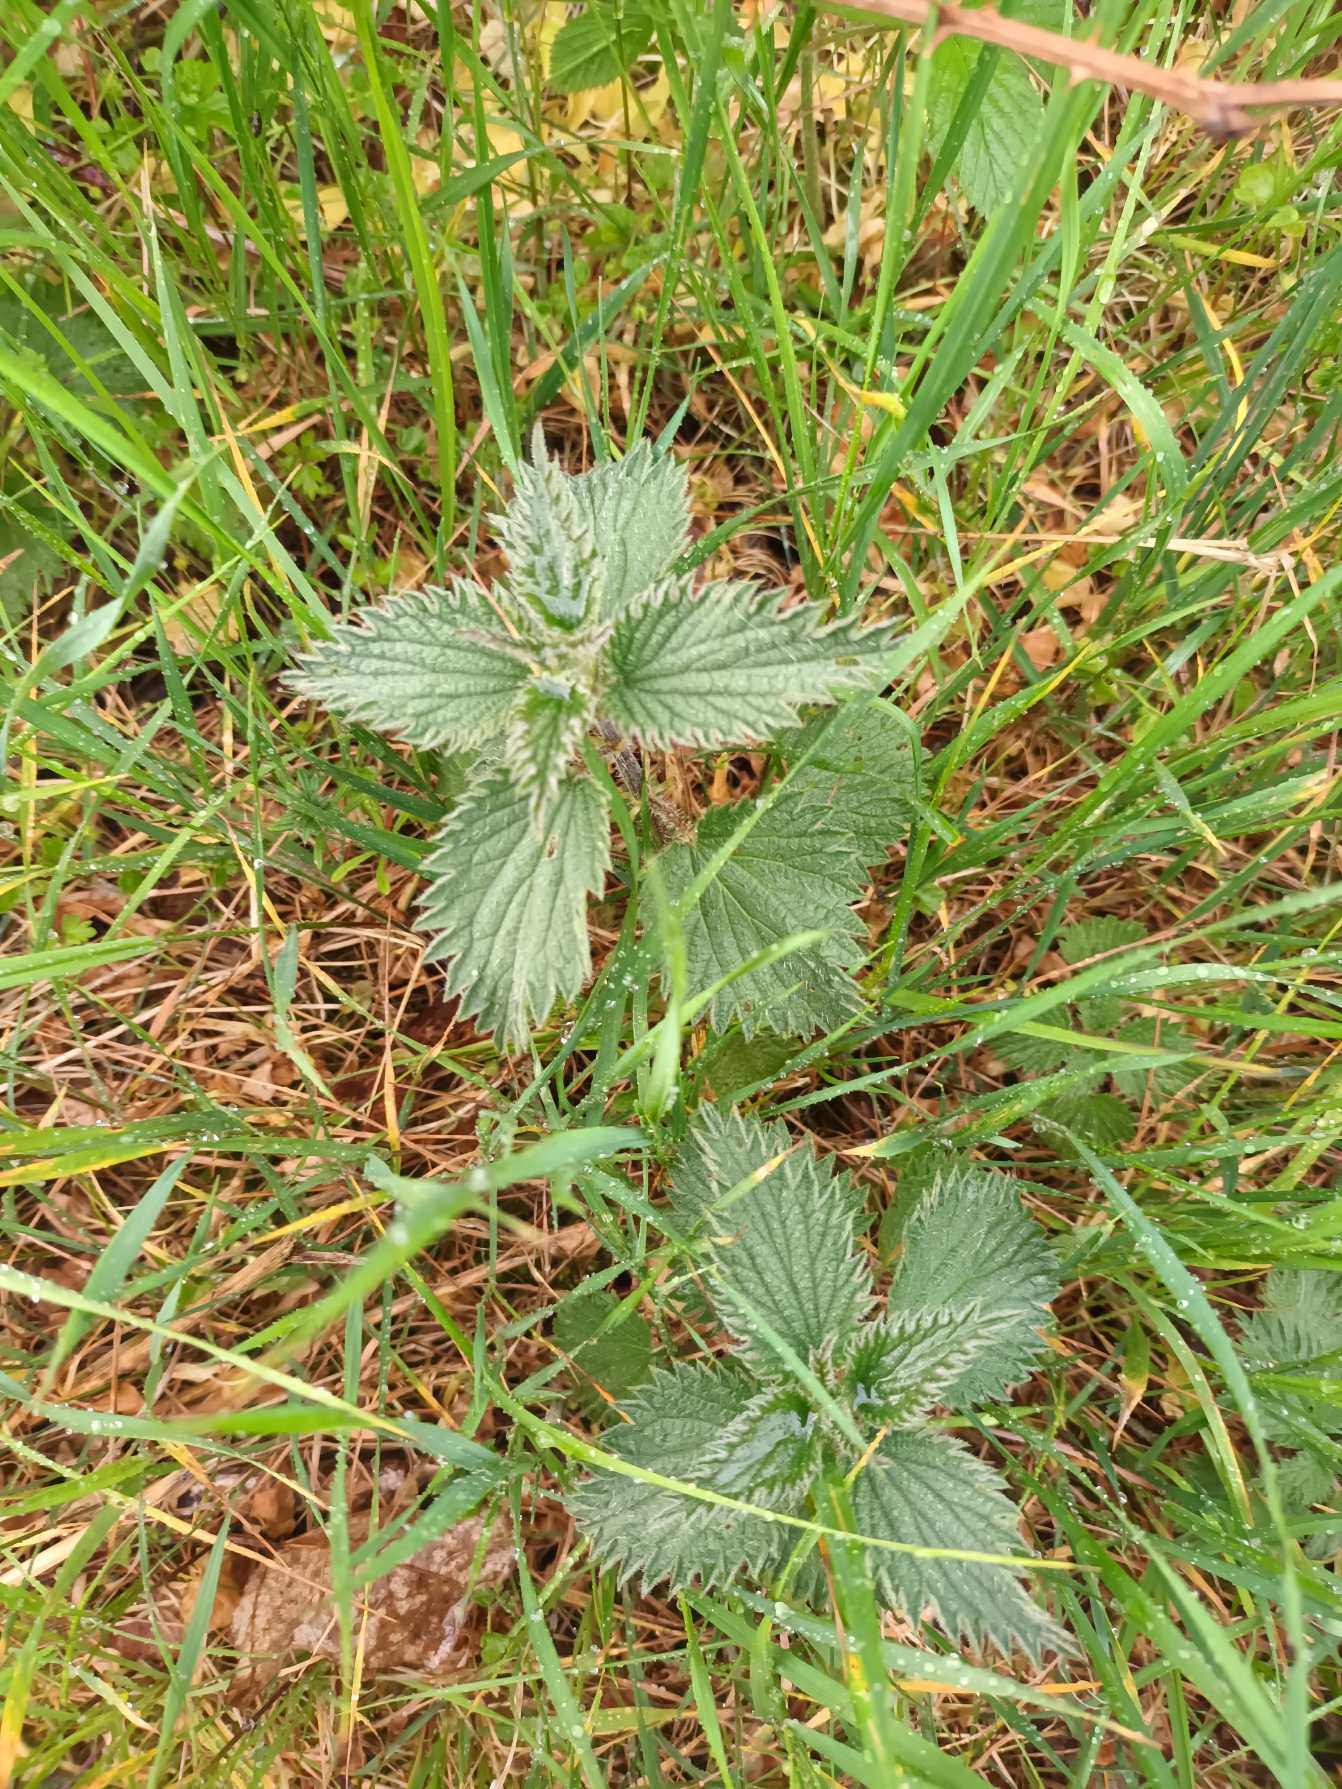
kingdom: Plantae
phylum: Tracheophyta
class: Magnoliopsida
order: Rosales
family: Urticaceae
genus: Urtica
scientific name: Urtica dioica
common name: Stor nælde
